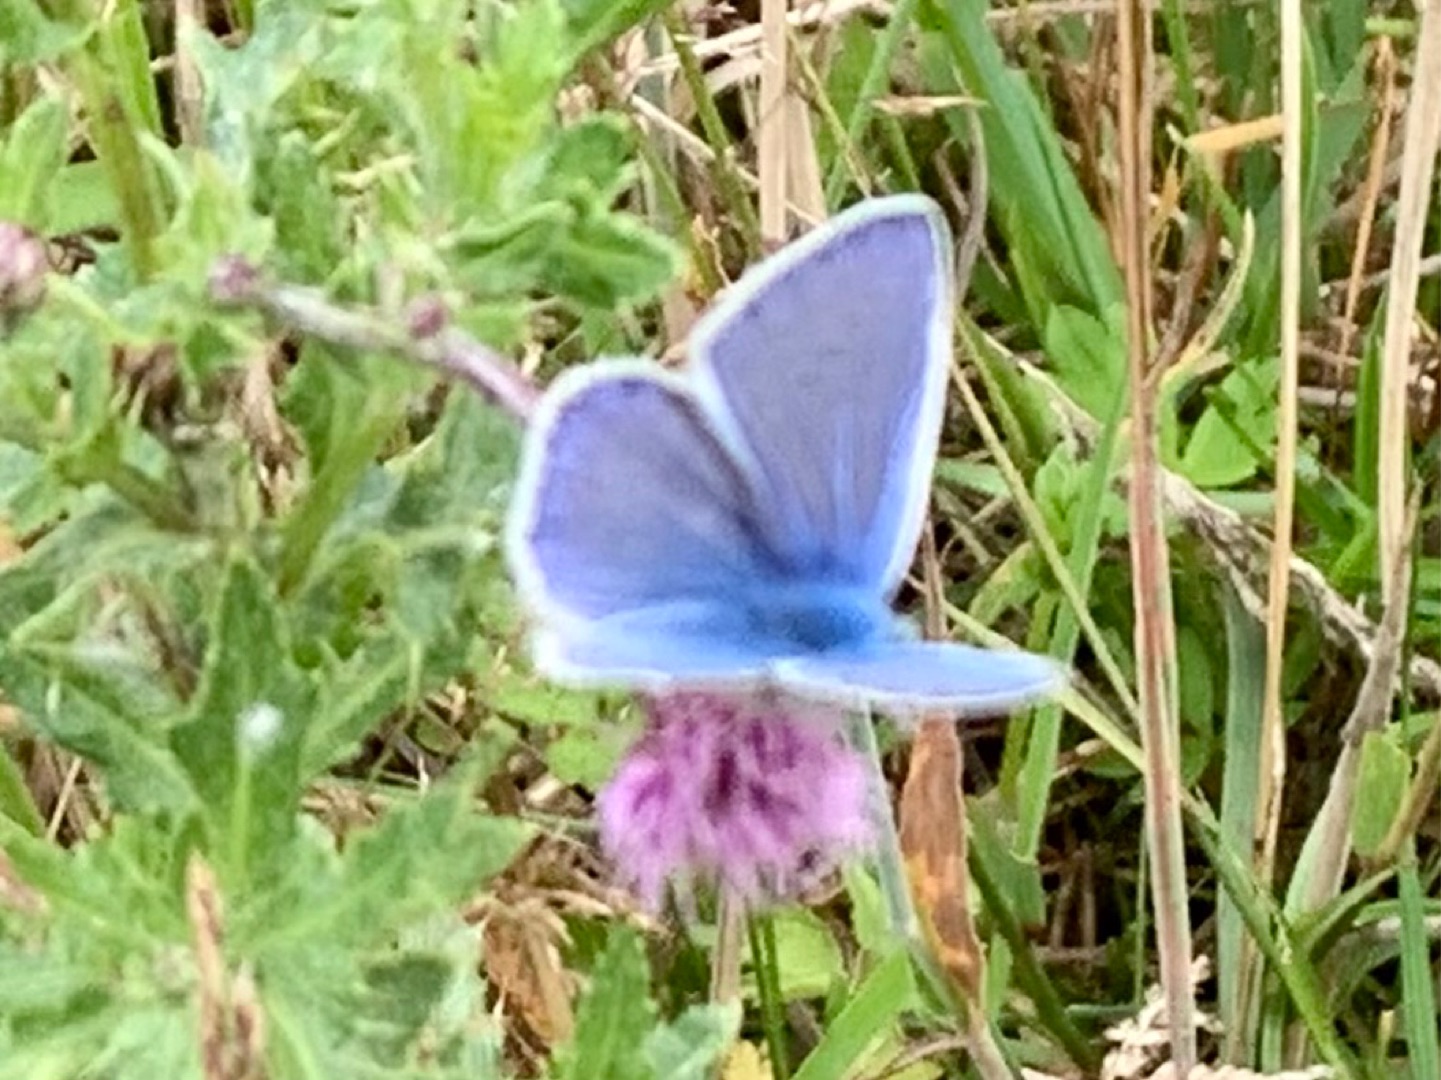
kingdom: Animalia
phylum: Arthropoda
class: Insecta
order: Lepidoptera
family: Lycaenidae
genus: Polyommatus
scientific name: Polyommatus icarus
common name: Almindelig blåfugl
